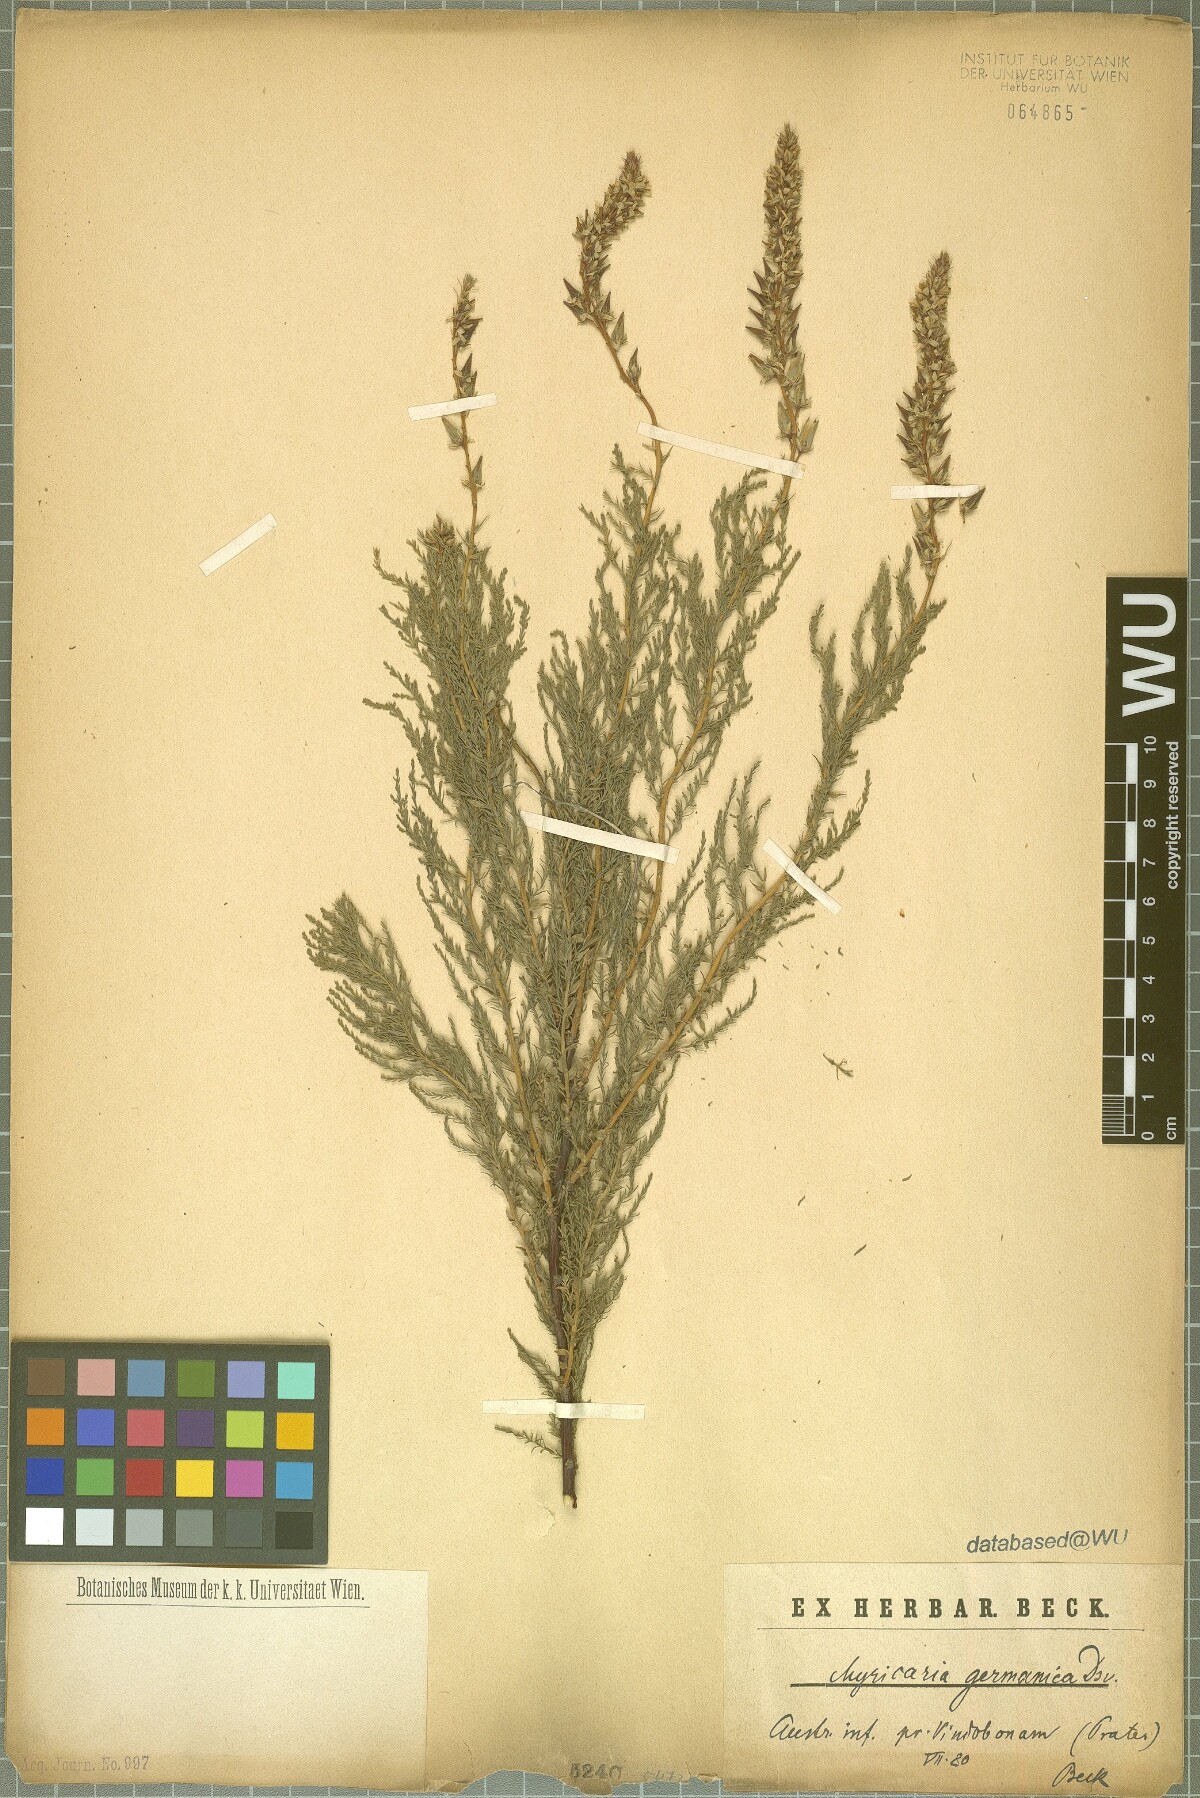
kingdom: Plantae
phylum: Tracheophyta
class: Magnoliopsida
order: Caryophyllales
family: Tamaricaceae
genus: Myricaria
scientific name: Myricaria germanica
